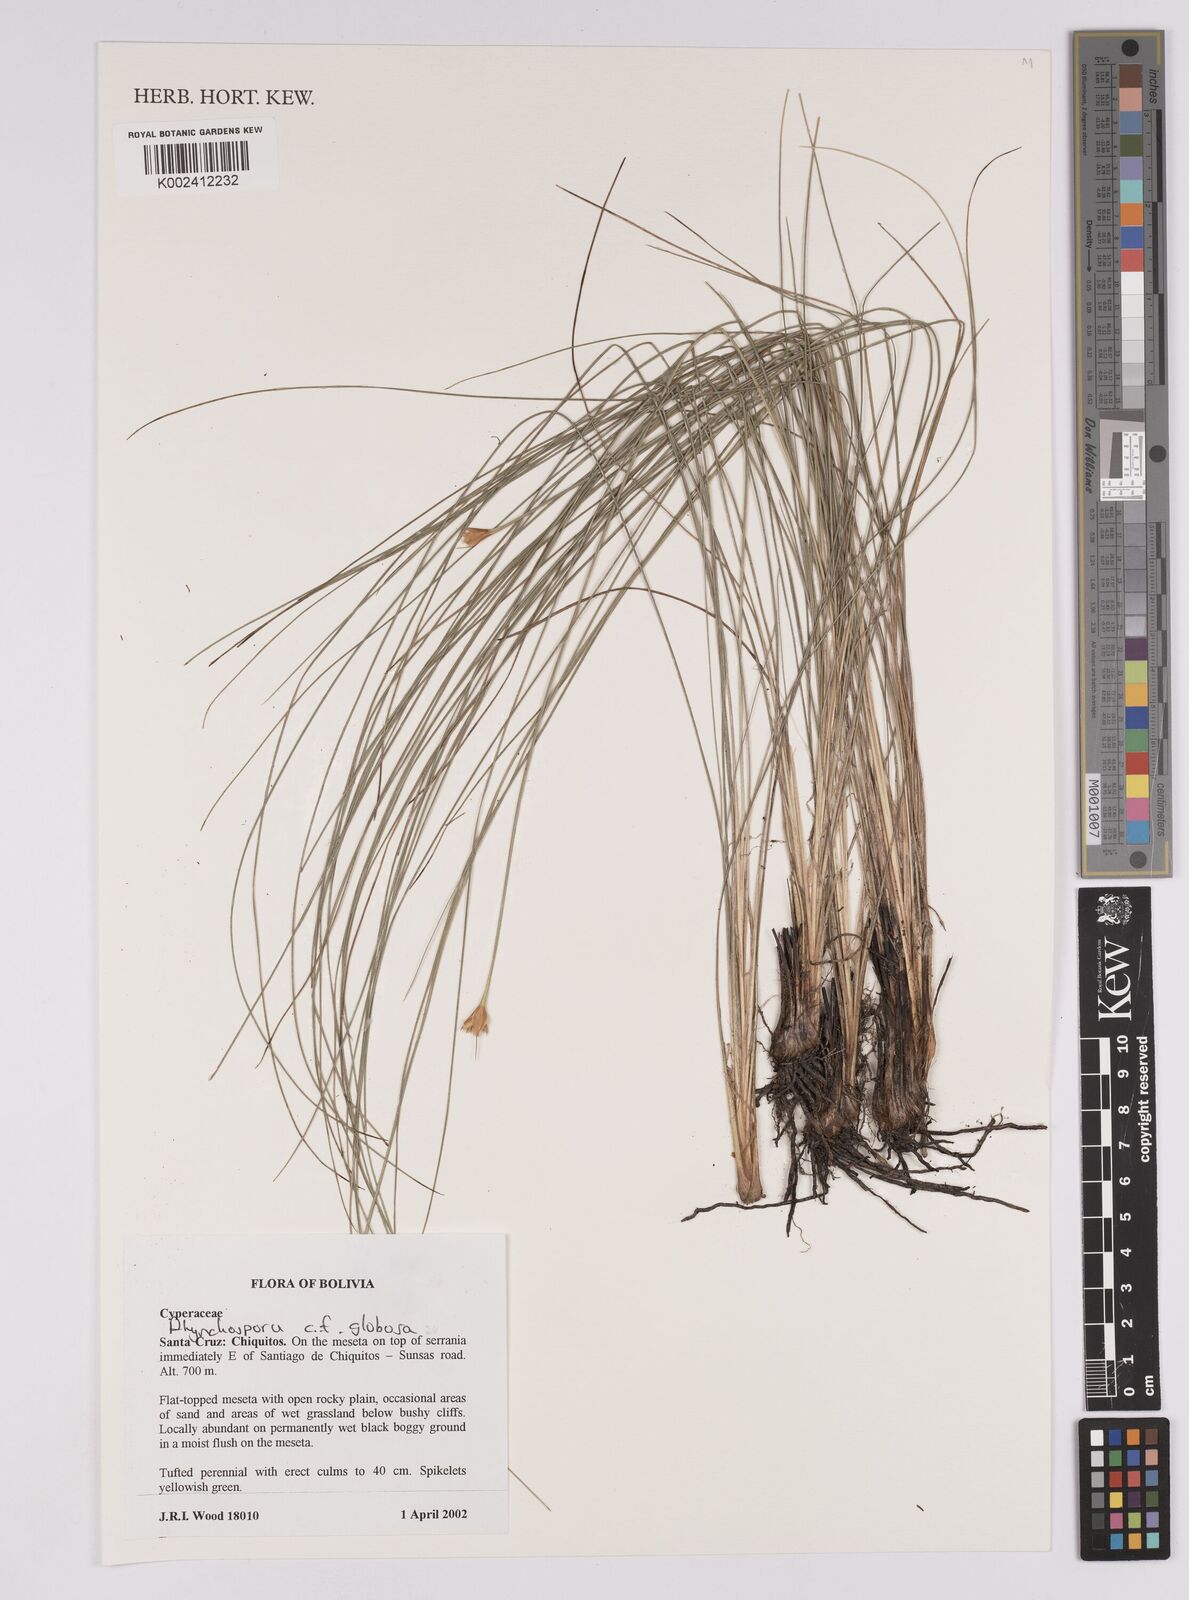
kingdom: Plantae
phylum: Tracheophyta
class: Liliopsida
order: Poales
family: Cyperaceae
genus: Rhynchospora
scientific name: Rhynchospora globosa
